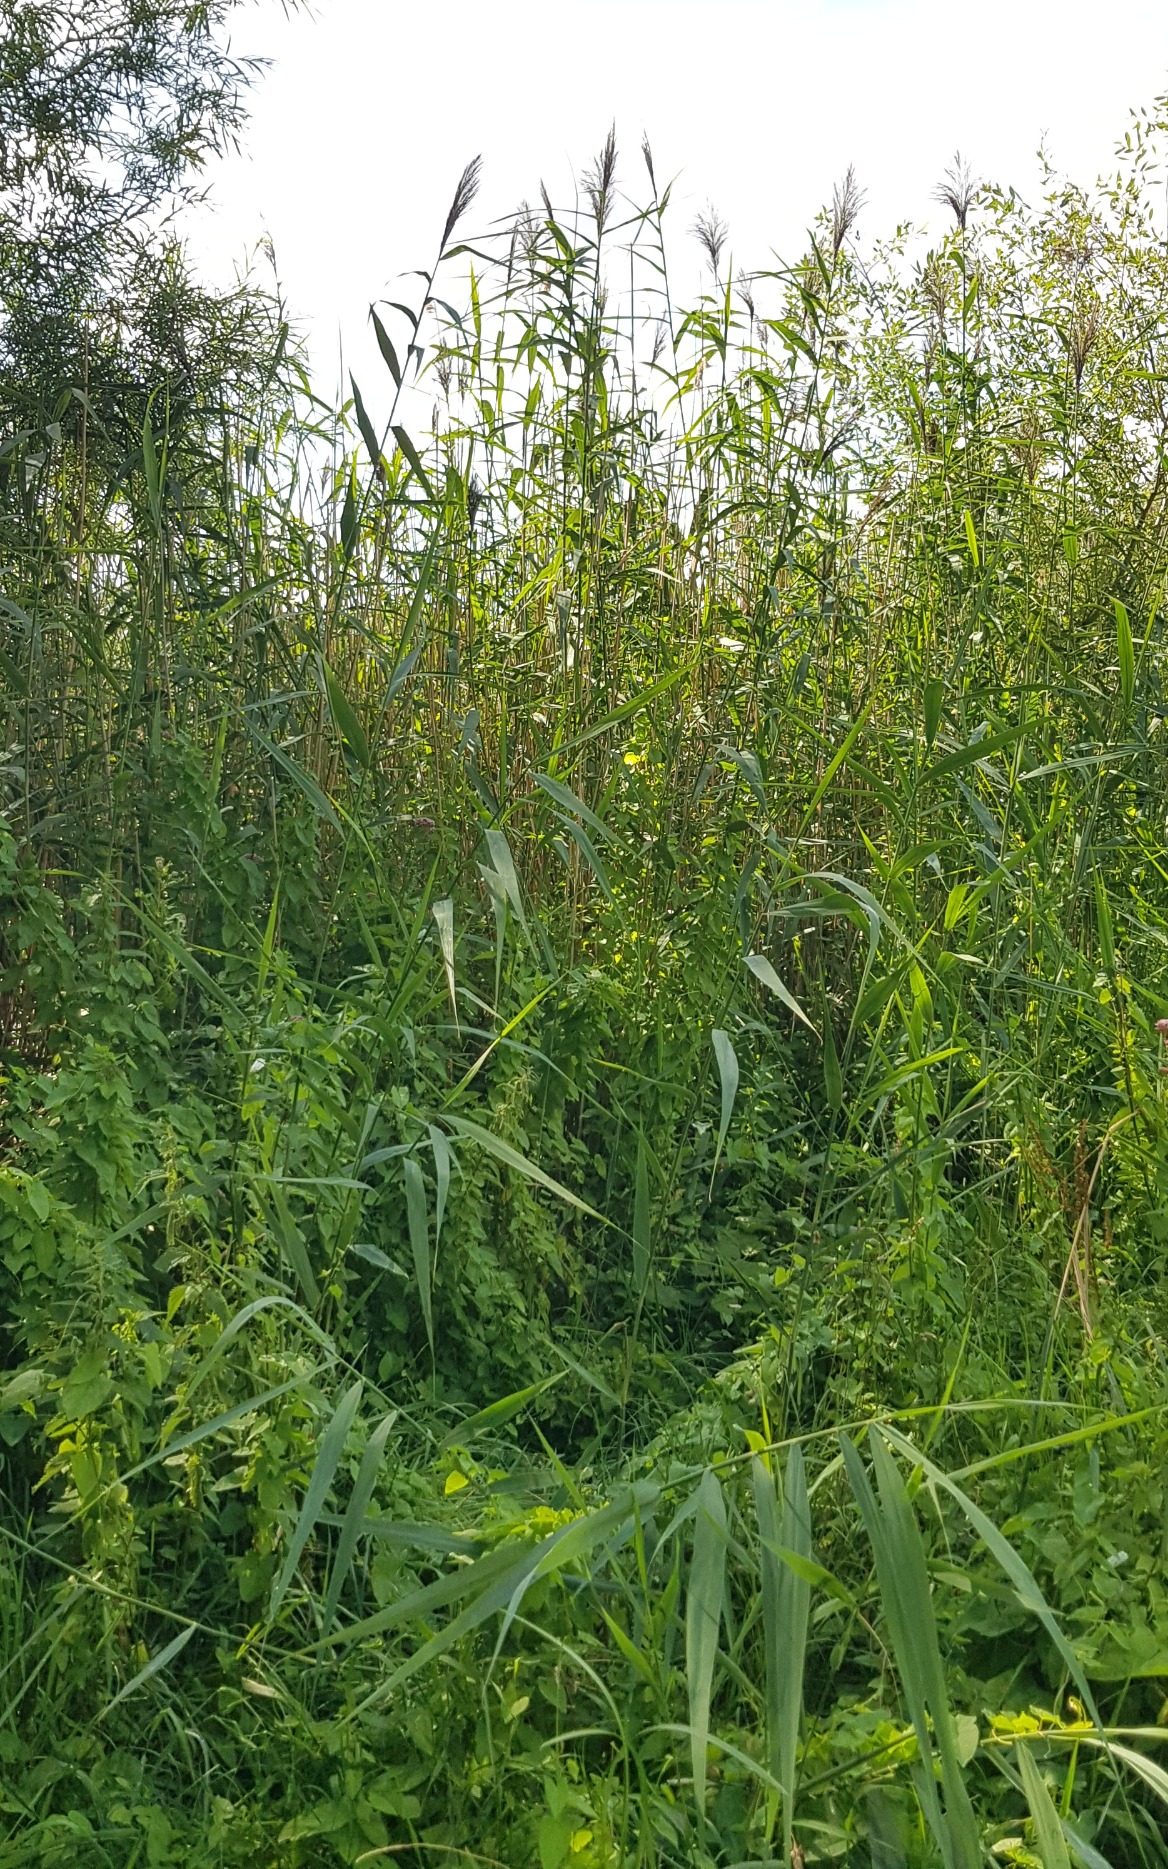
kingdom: Plantae
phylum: Tracheophyta
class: Liliopsida
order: Poales
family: Poaceae
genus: Phragmites
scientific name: Phragmites australis
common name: Tagrør
